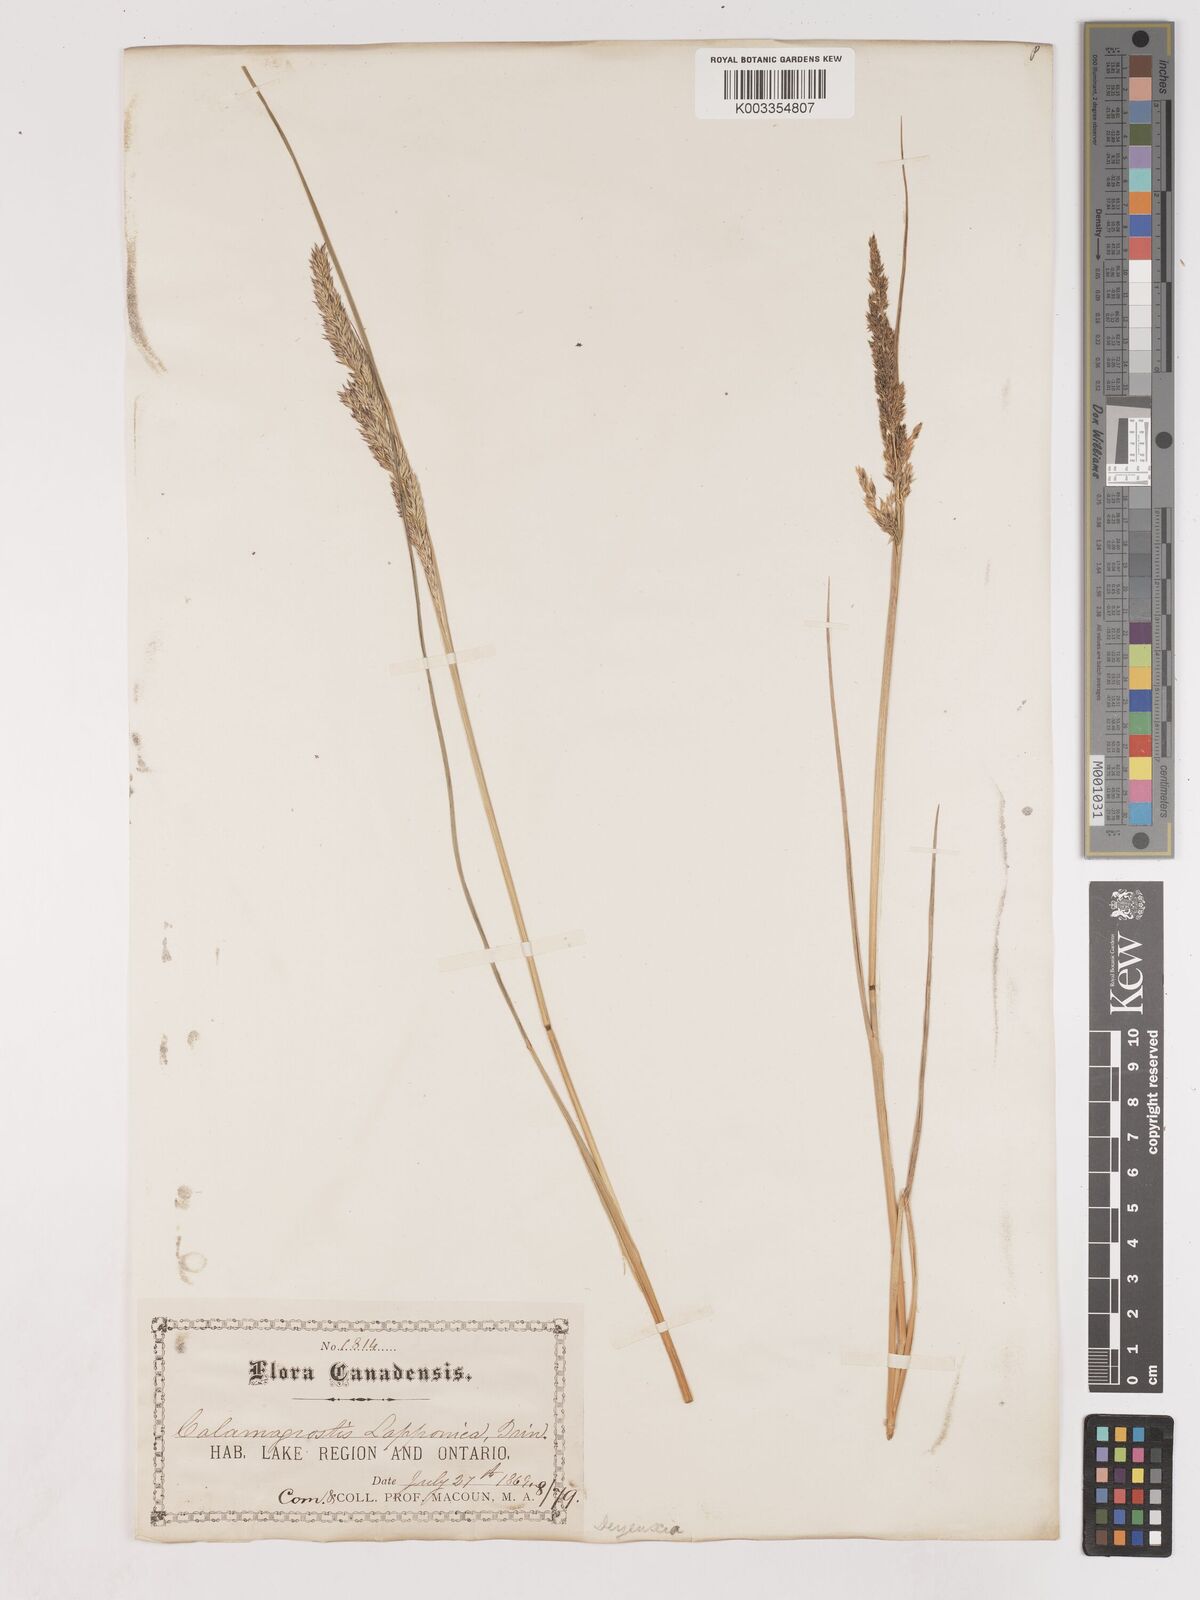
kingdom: Plantae
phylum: Tracheophyta
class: Liliopsida
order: Poales
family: Poaceae
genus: Calamagrostis
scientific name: Calamagrostis
